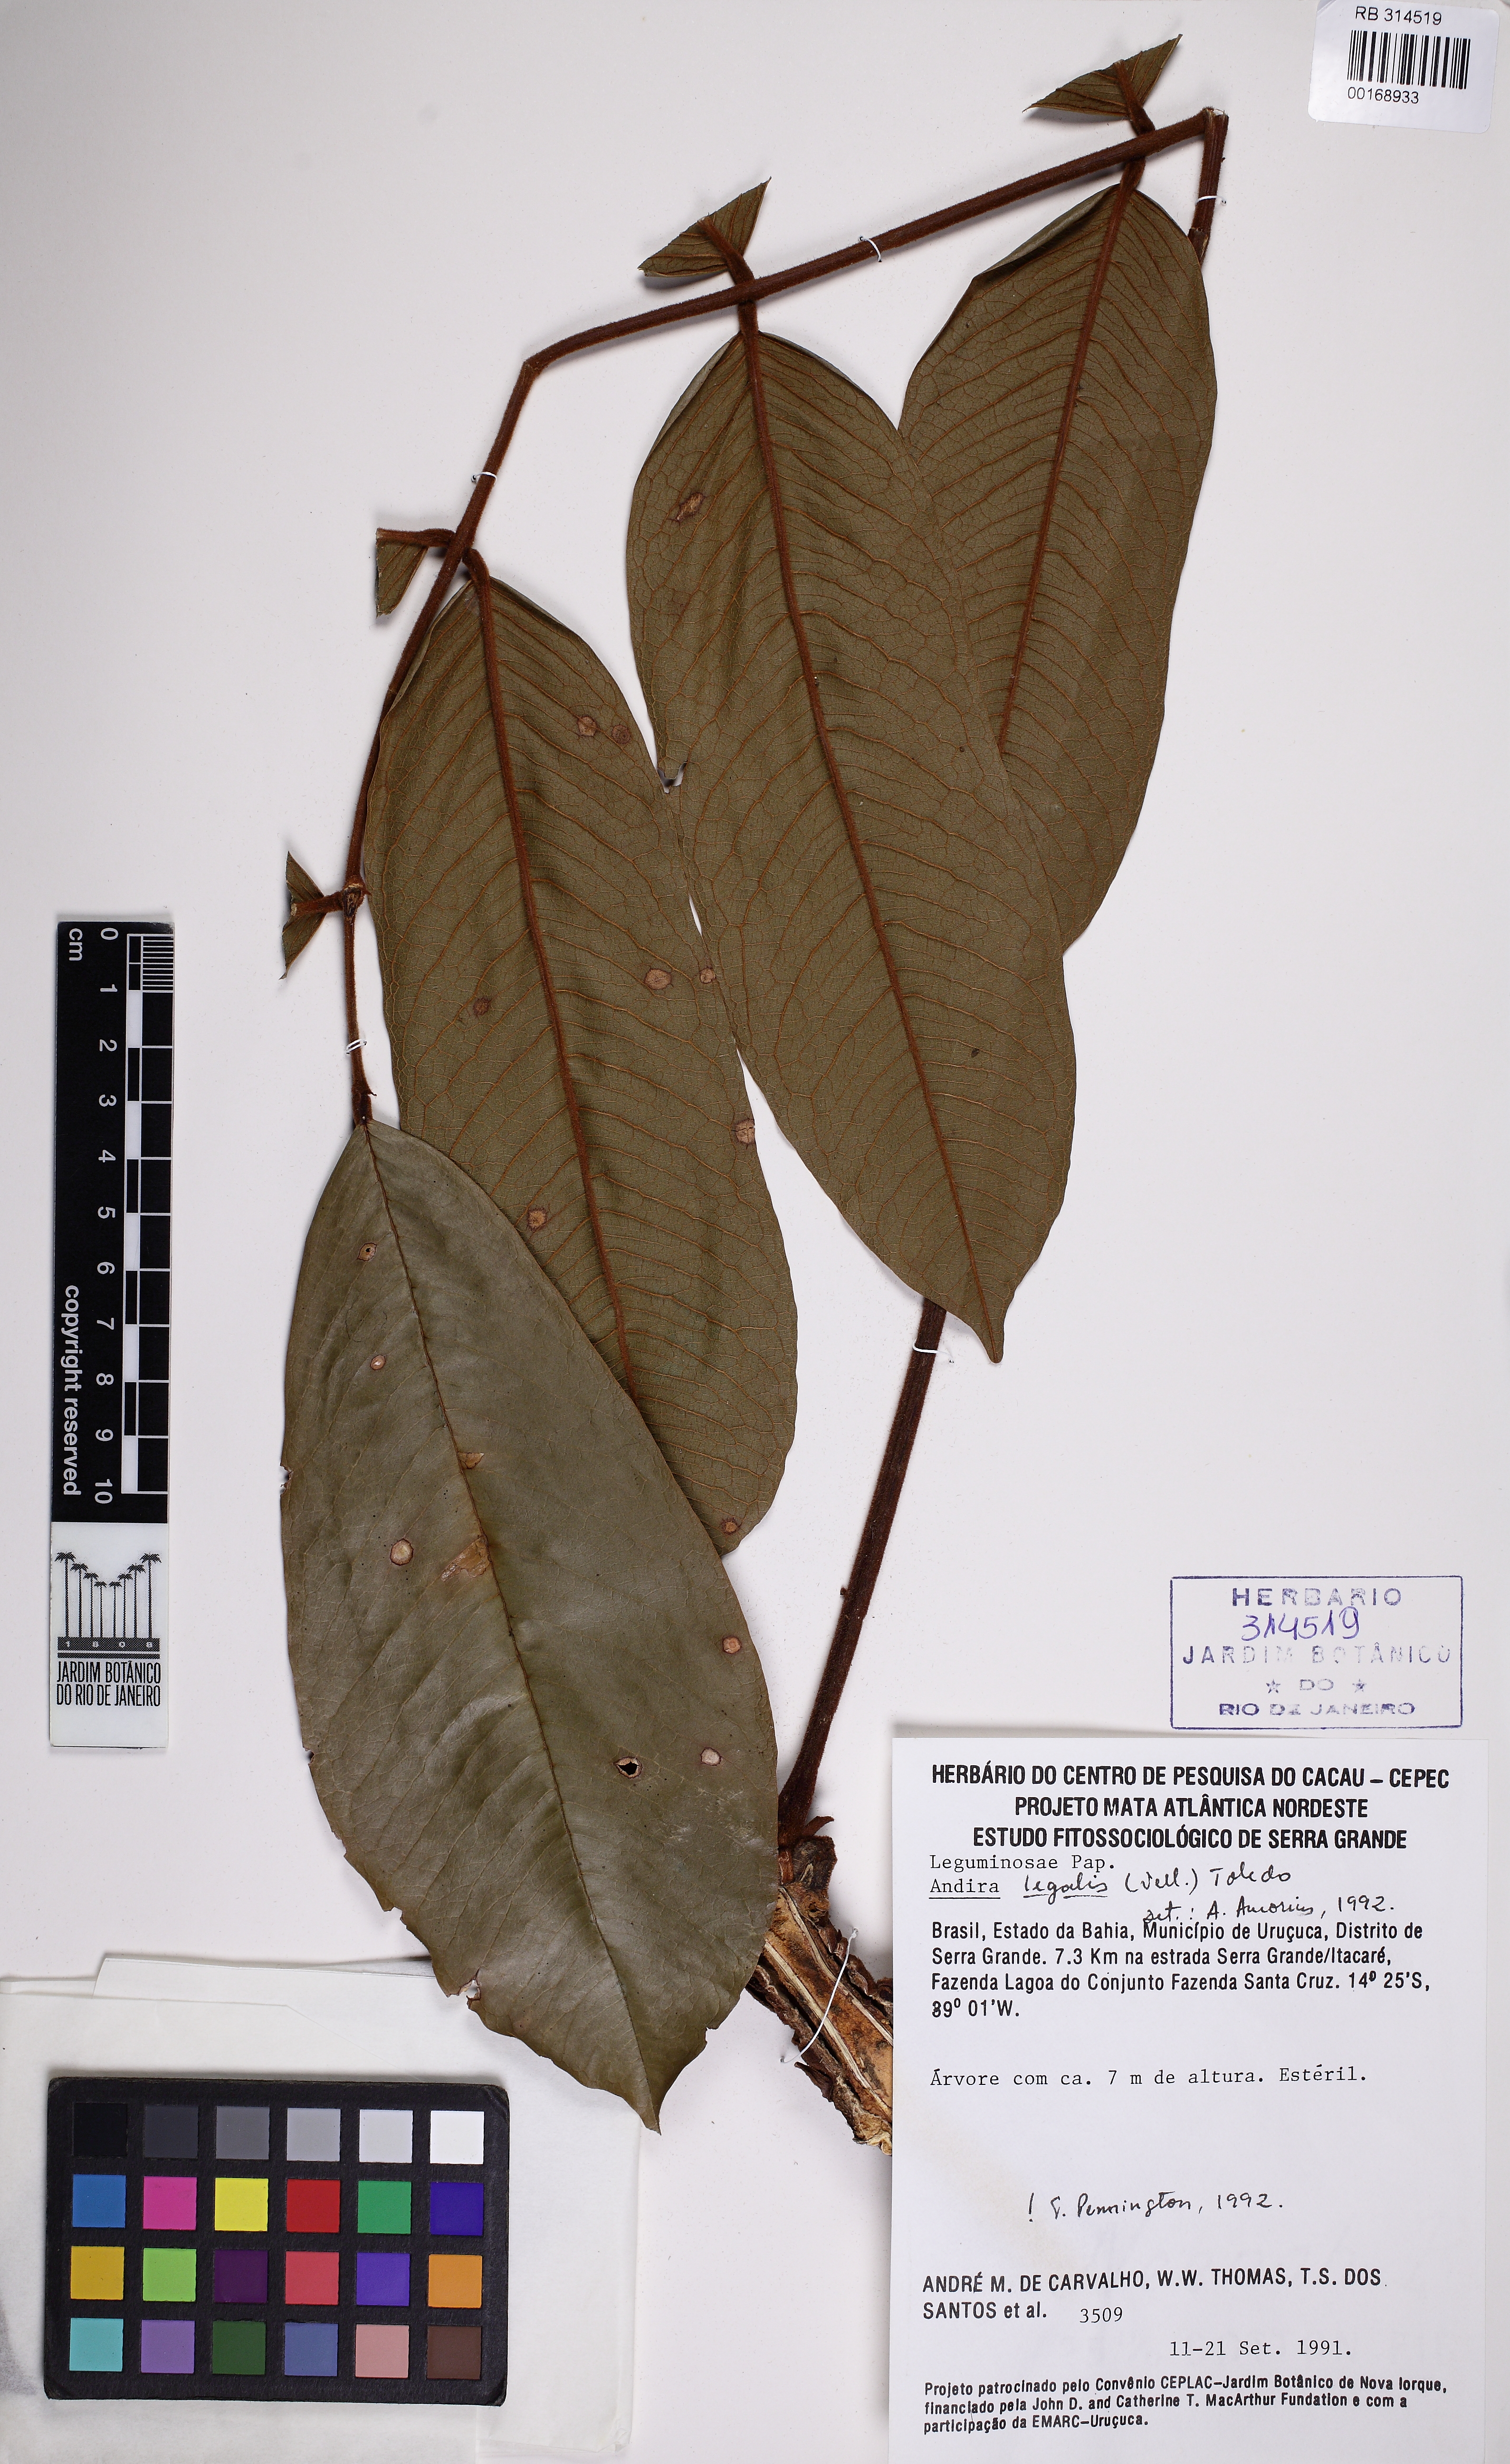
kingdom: Plantae
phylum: Tracheophyta
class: Magnoliopsida
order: Fabales
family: Fabaceae
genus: Andira
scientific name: Andira legalis
